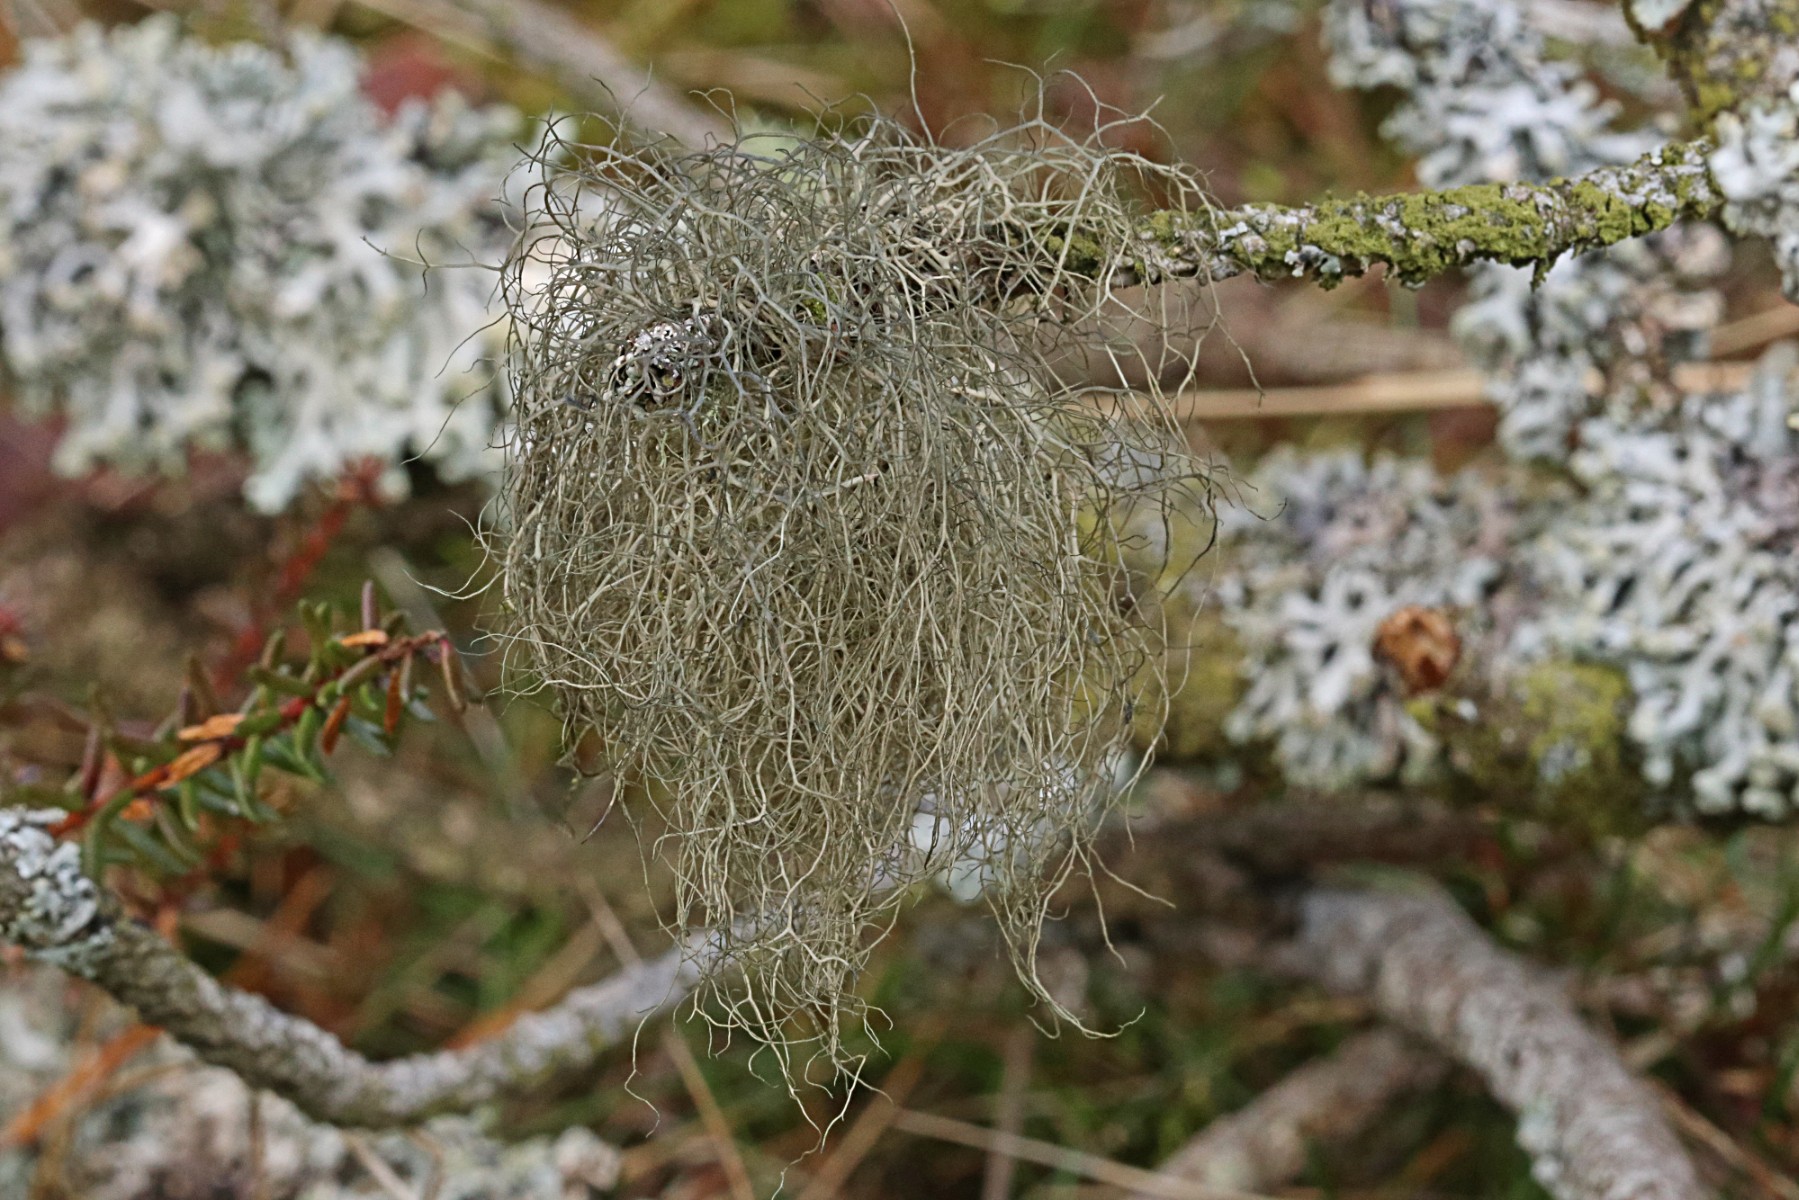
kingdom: Fungi
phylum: Ascomycota
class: Lecanoromycetes
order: Lecanorales
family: Parmeliaceae
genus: Bryoria
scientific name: Bryoria capillaris
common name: grå mankelav
